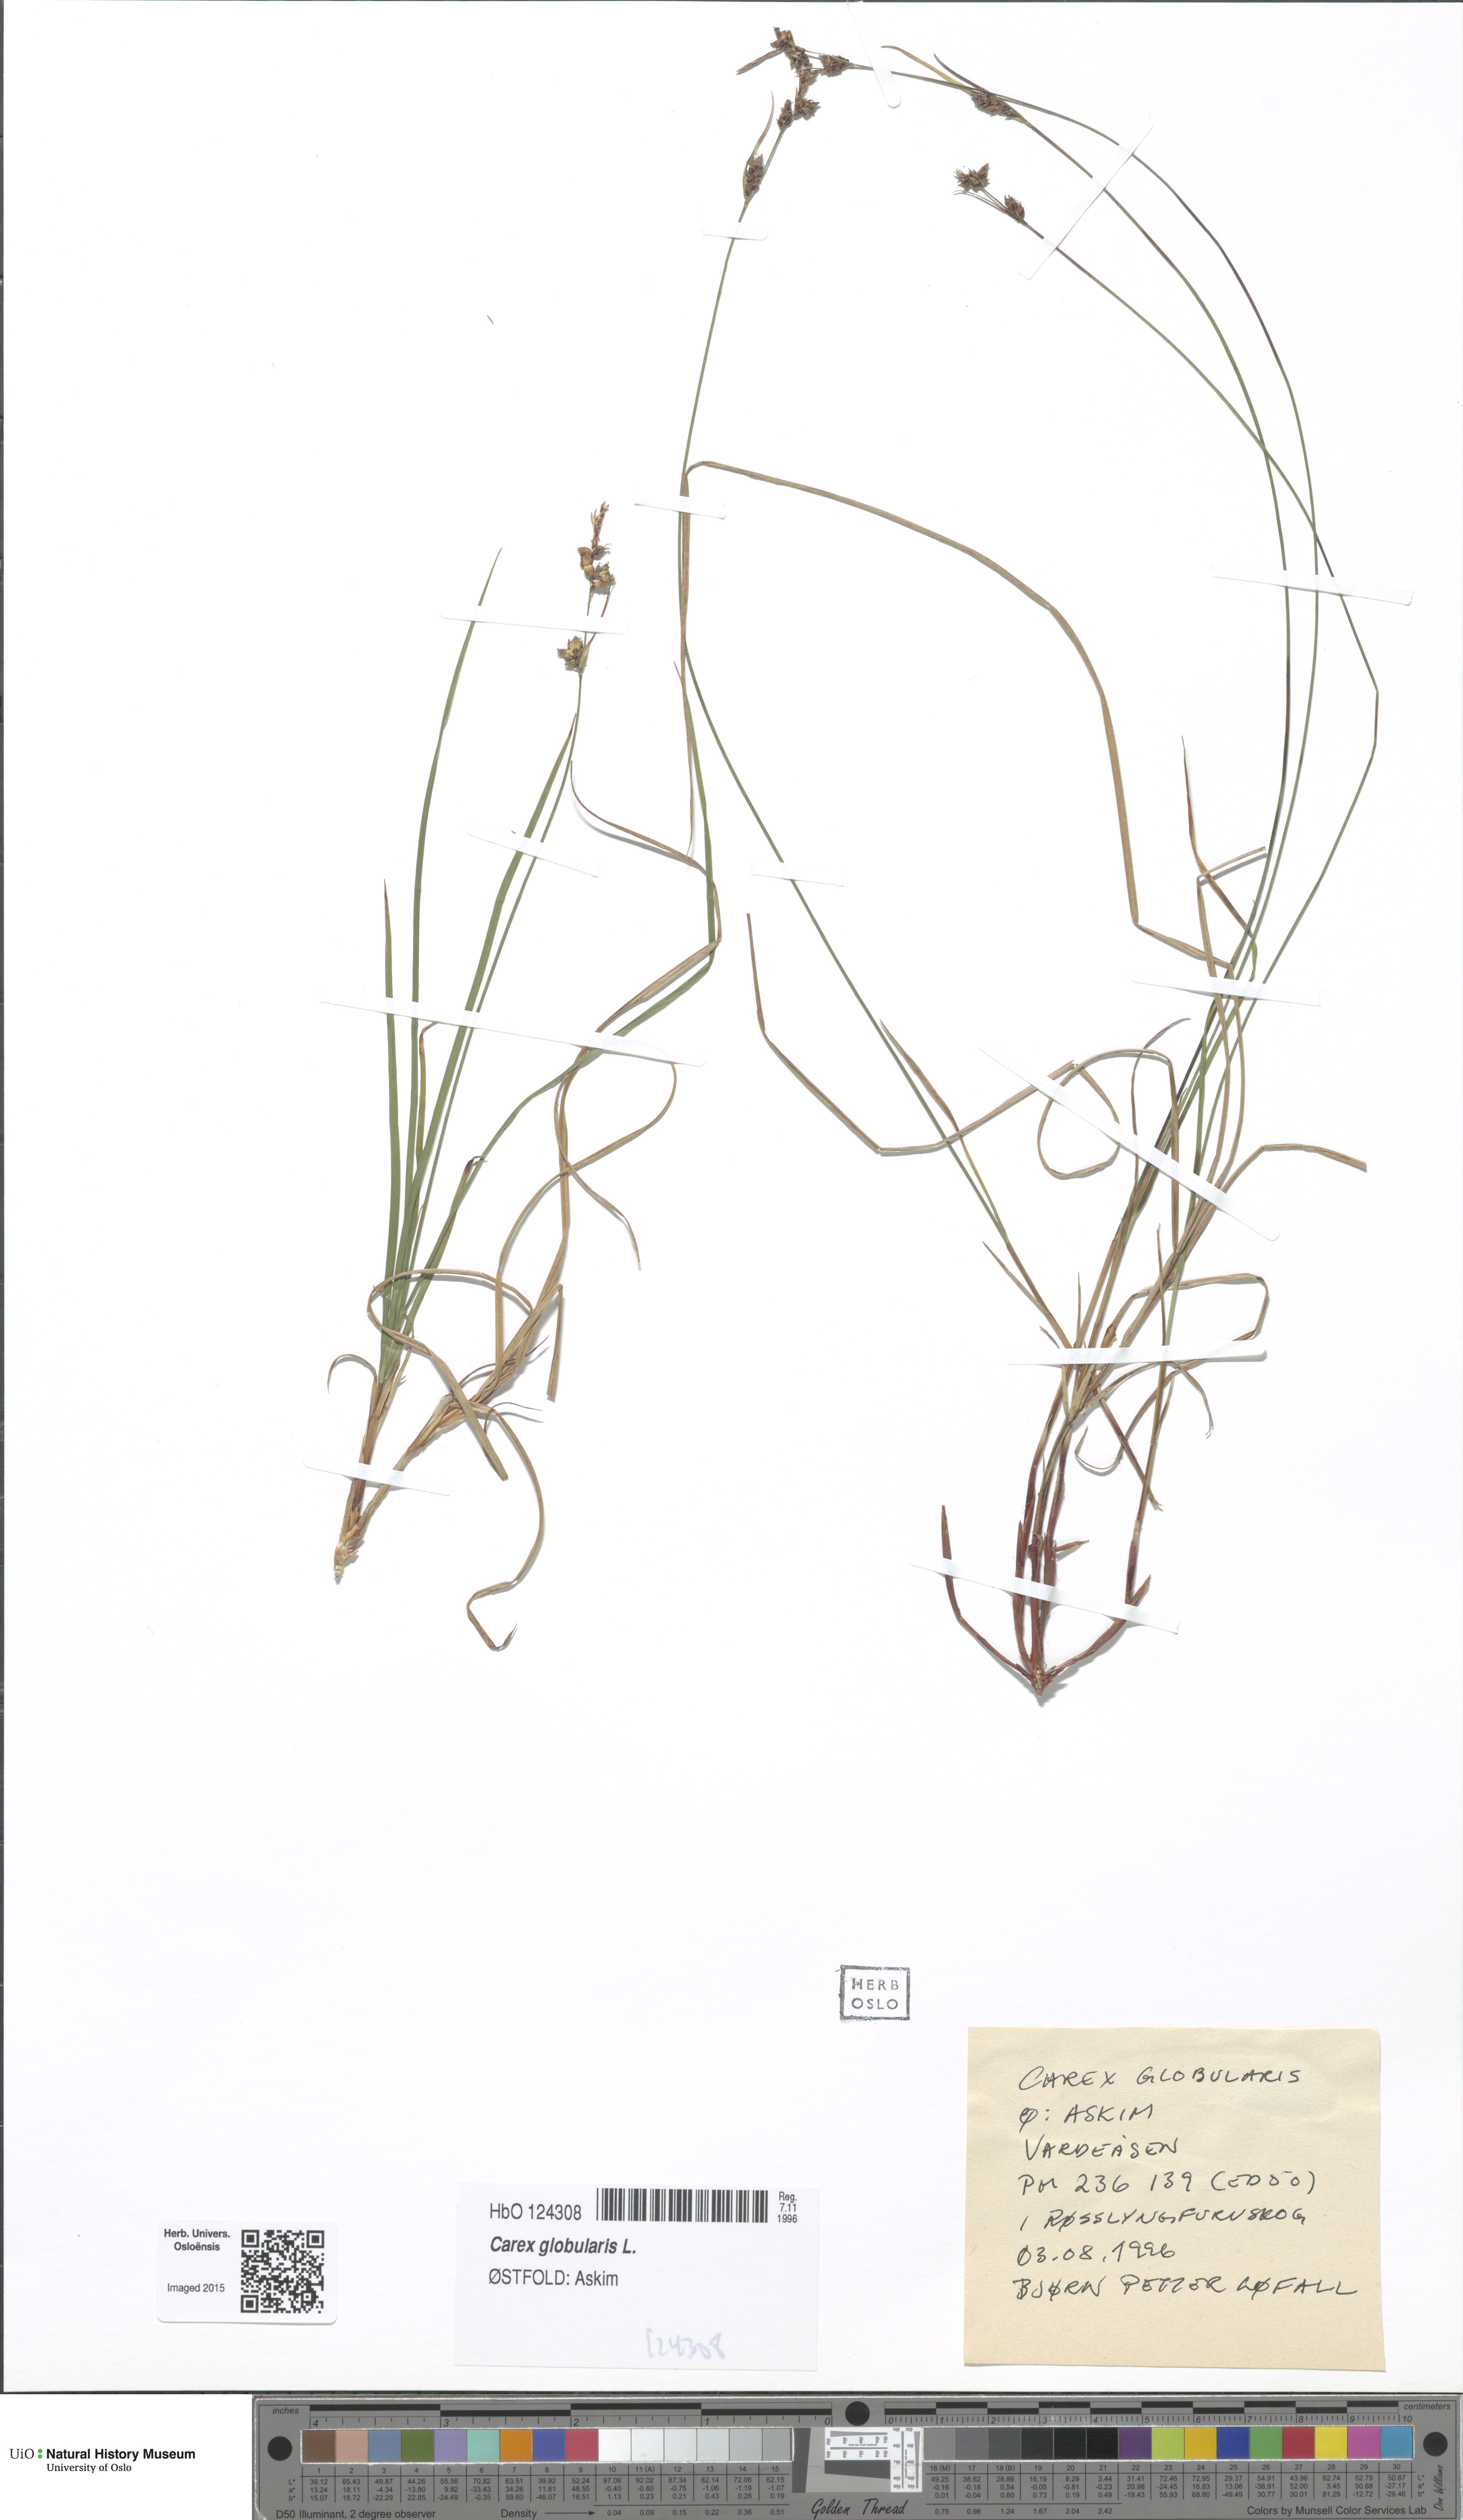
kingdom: Plantae
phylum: Tracheophyta
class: Liliopsida
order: Poales
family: Cyperaceae
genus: Carex
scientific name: Carex globularis
